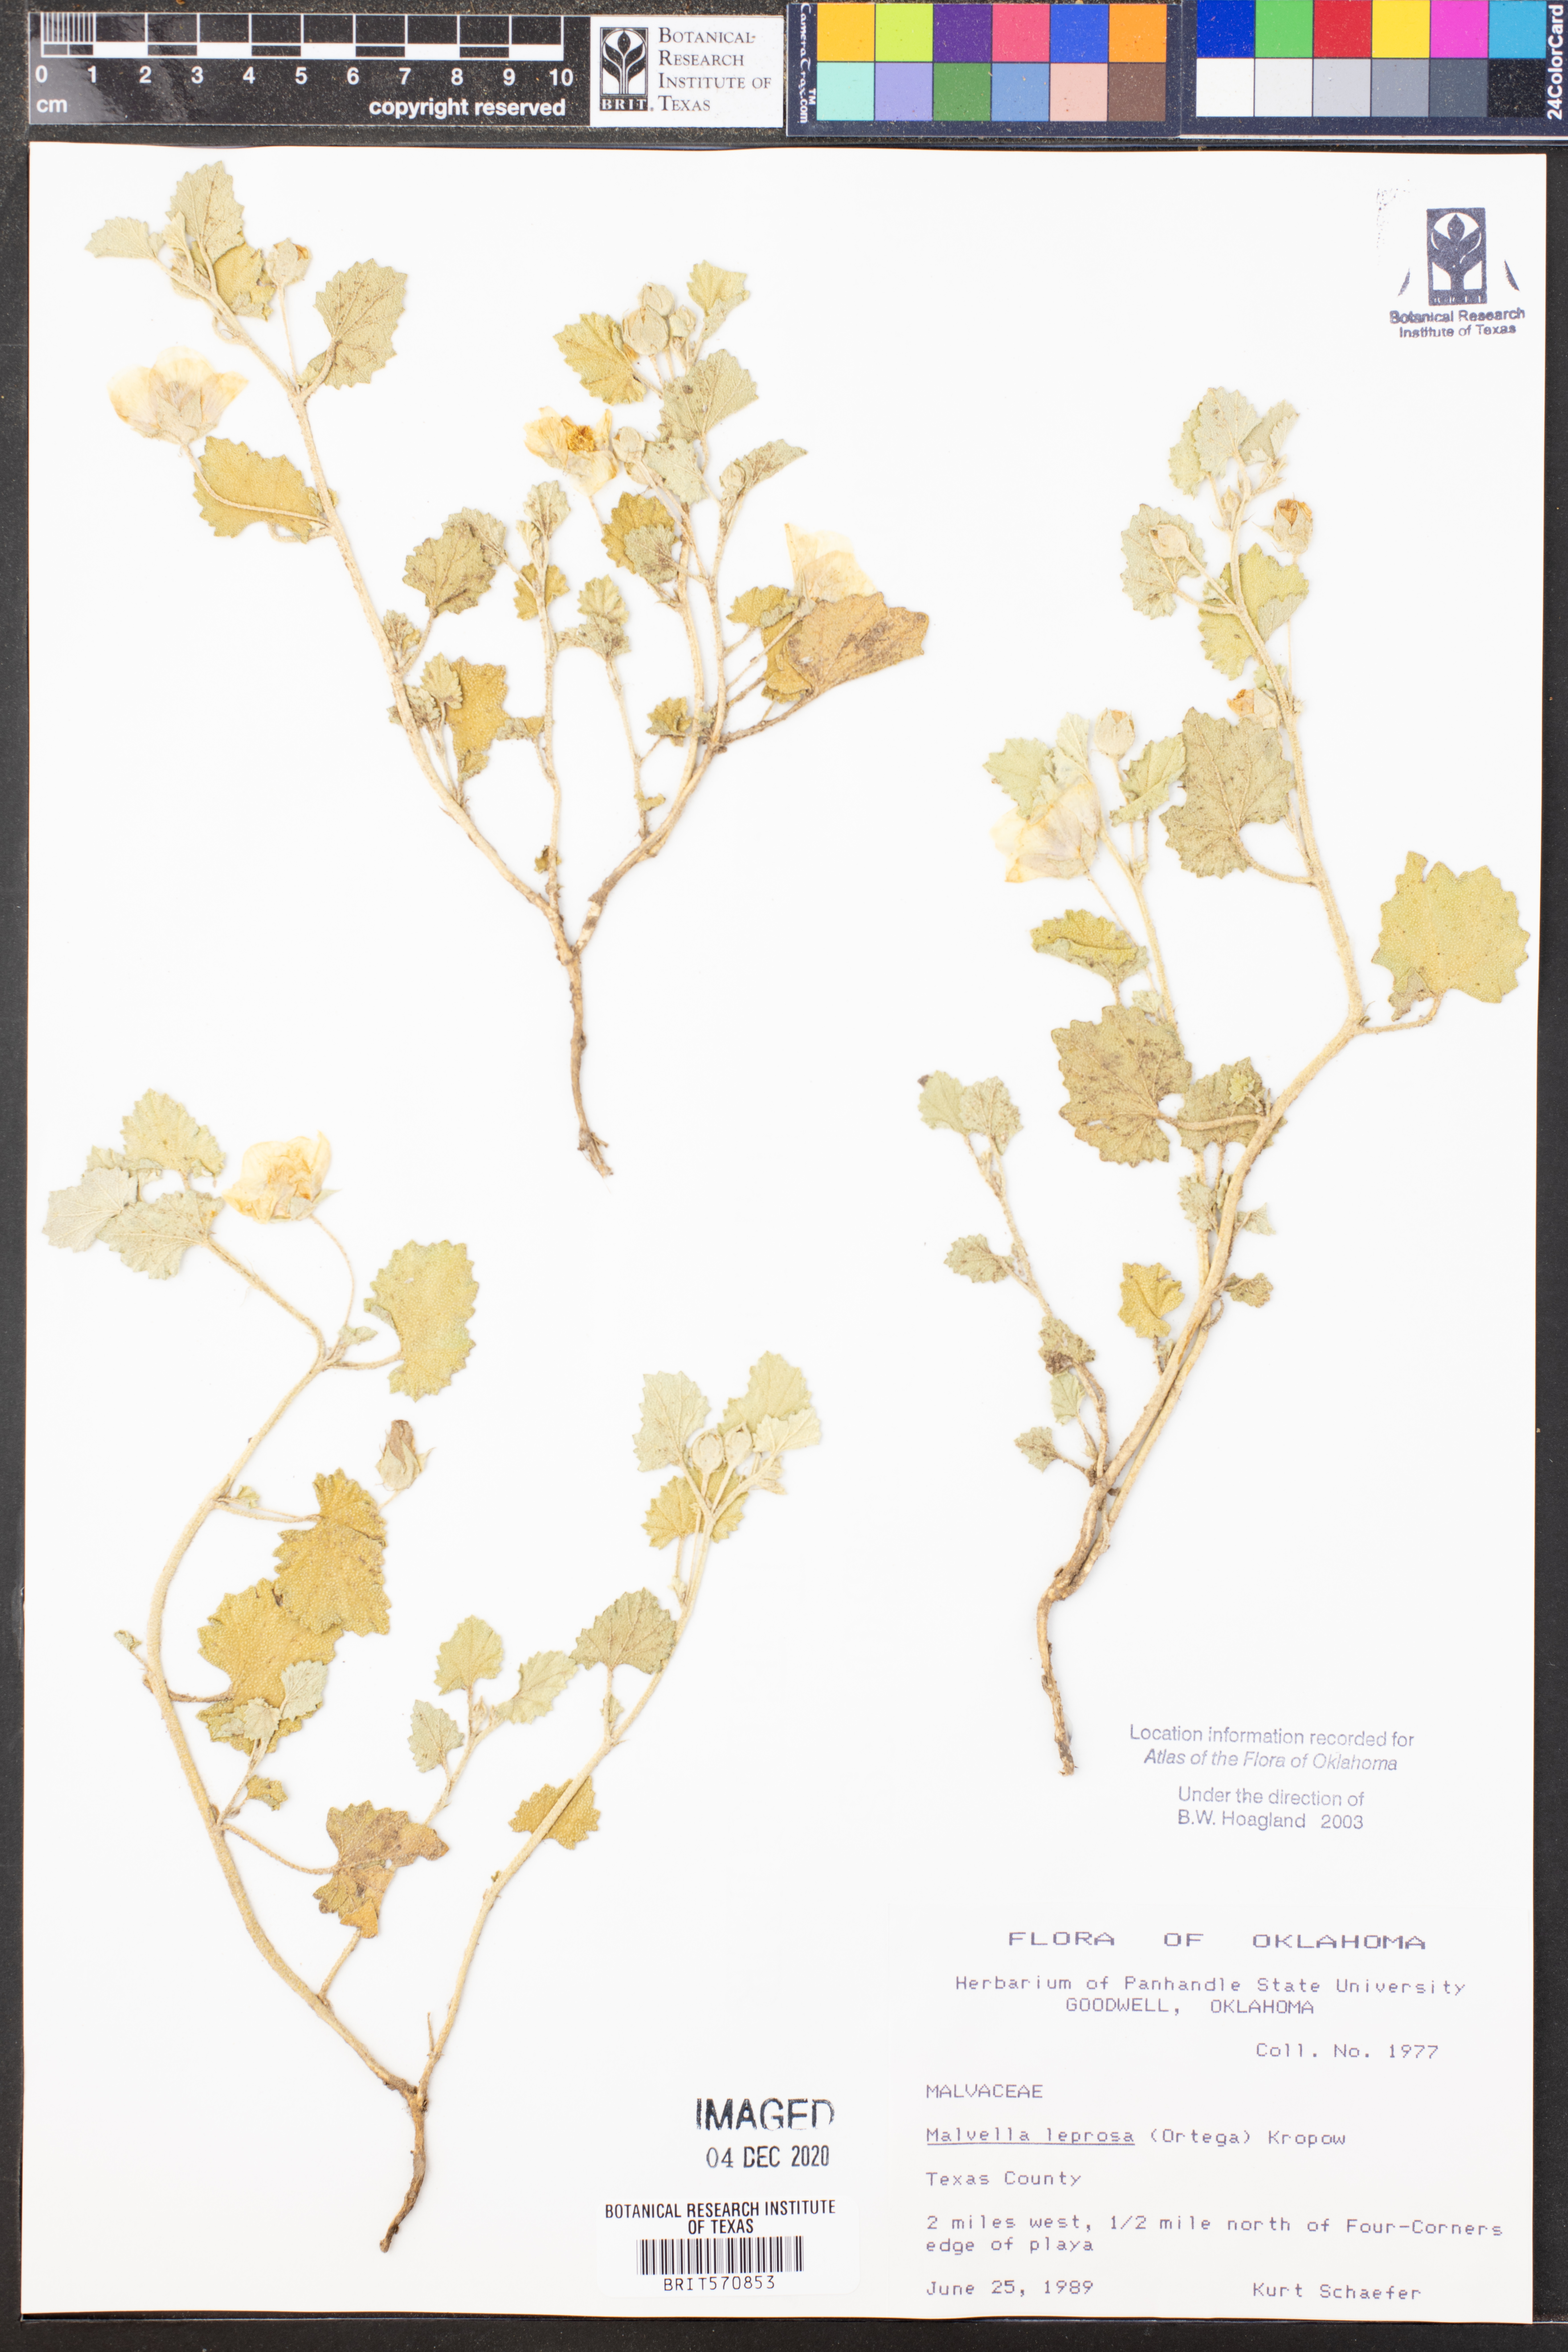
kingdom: Plantae
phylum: Tracheophyta
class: Magnoliopsida
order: Malvales
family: Malvaceae
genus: Malvella
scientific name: Malvella leprosa
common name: Alkali-mallow
